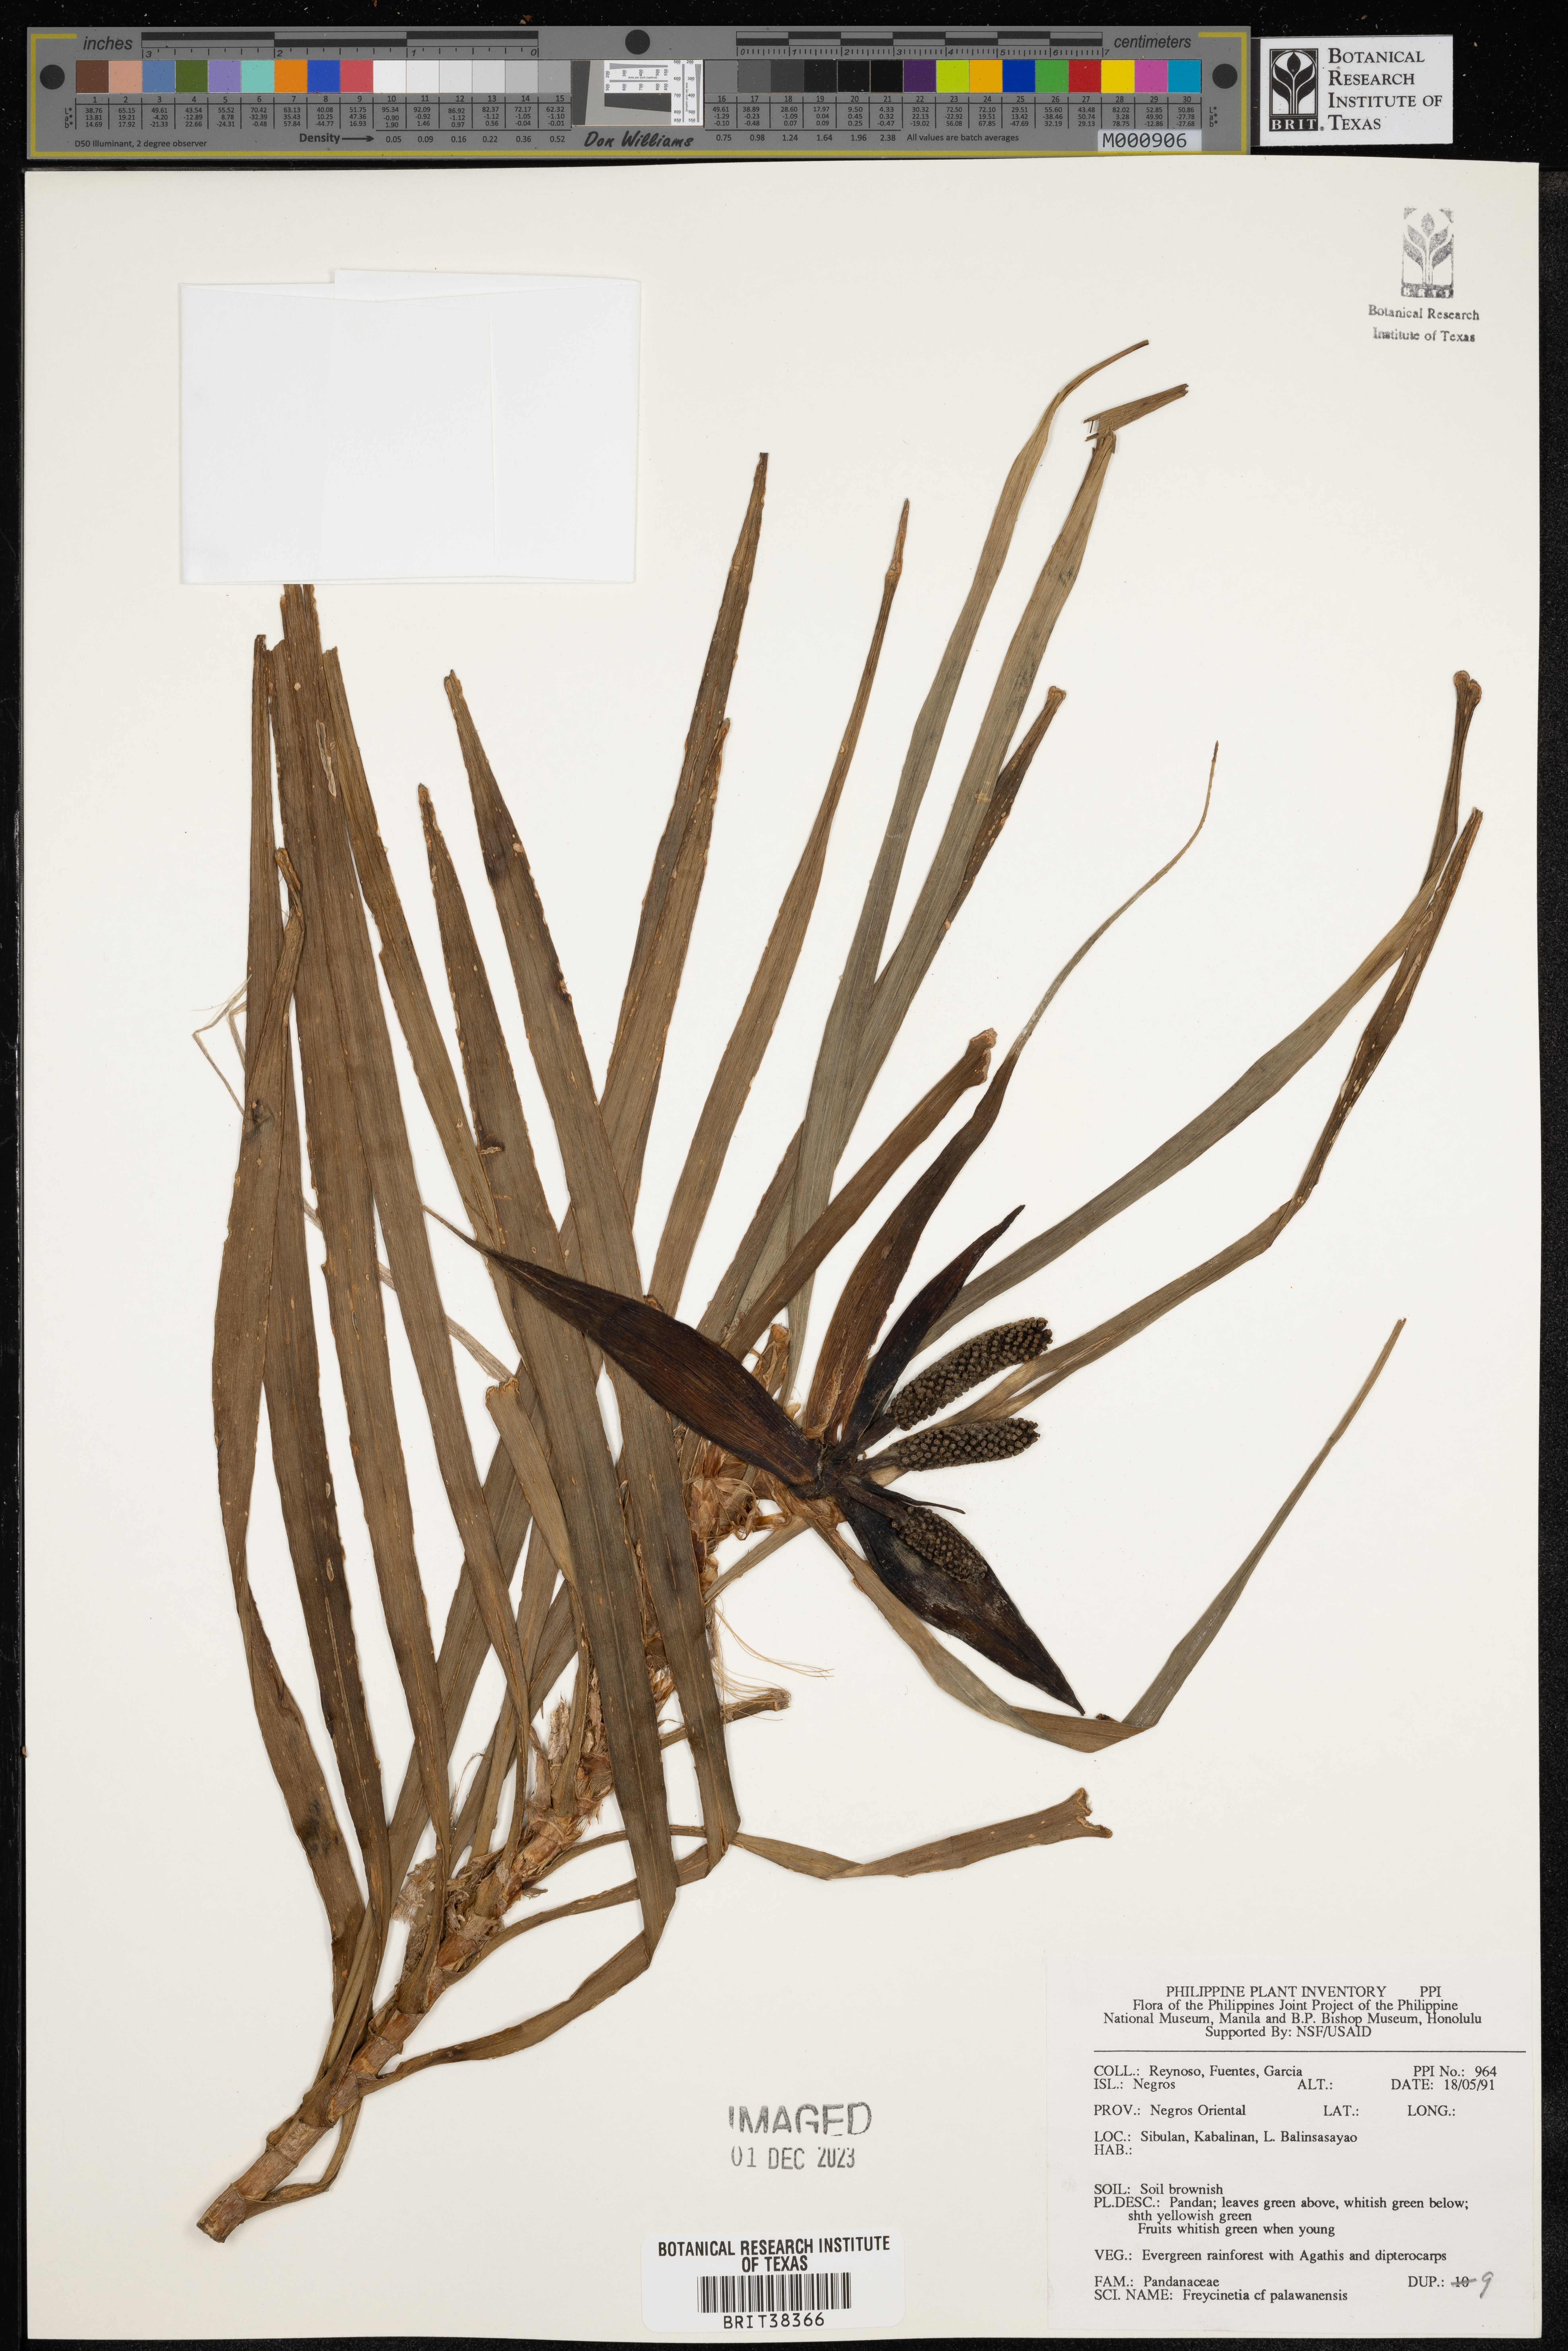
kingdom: Plantae
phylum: Tracheophyta
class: Liliopsida
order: Pandanales
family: Pandanaceae
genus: Freycinetia
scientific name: Freycinetia palawanensis
